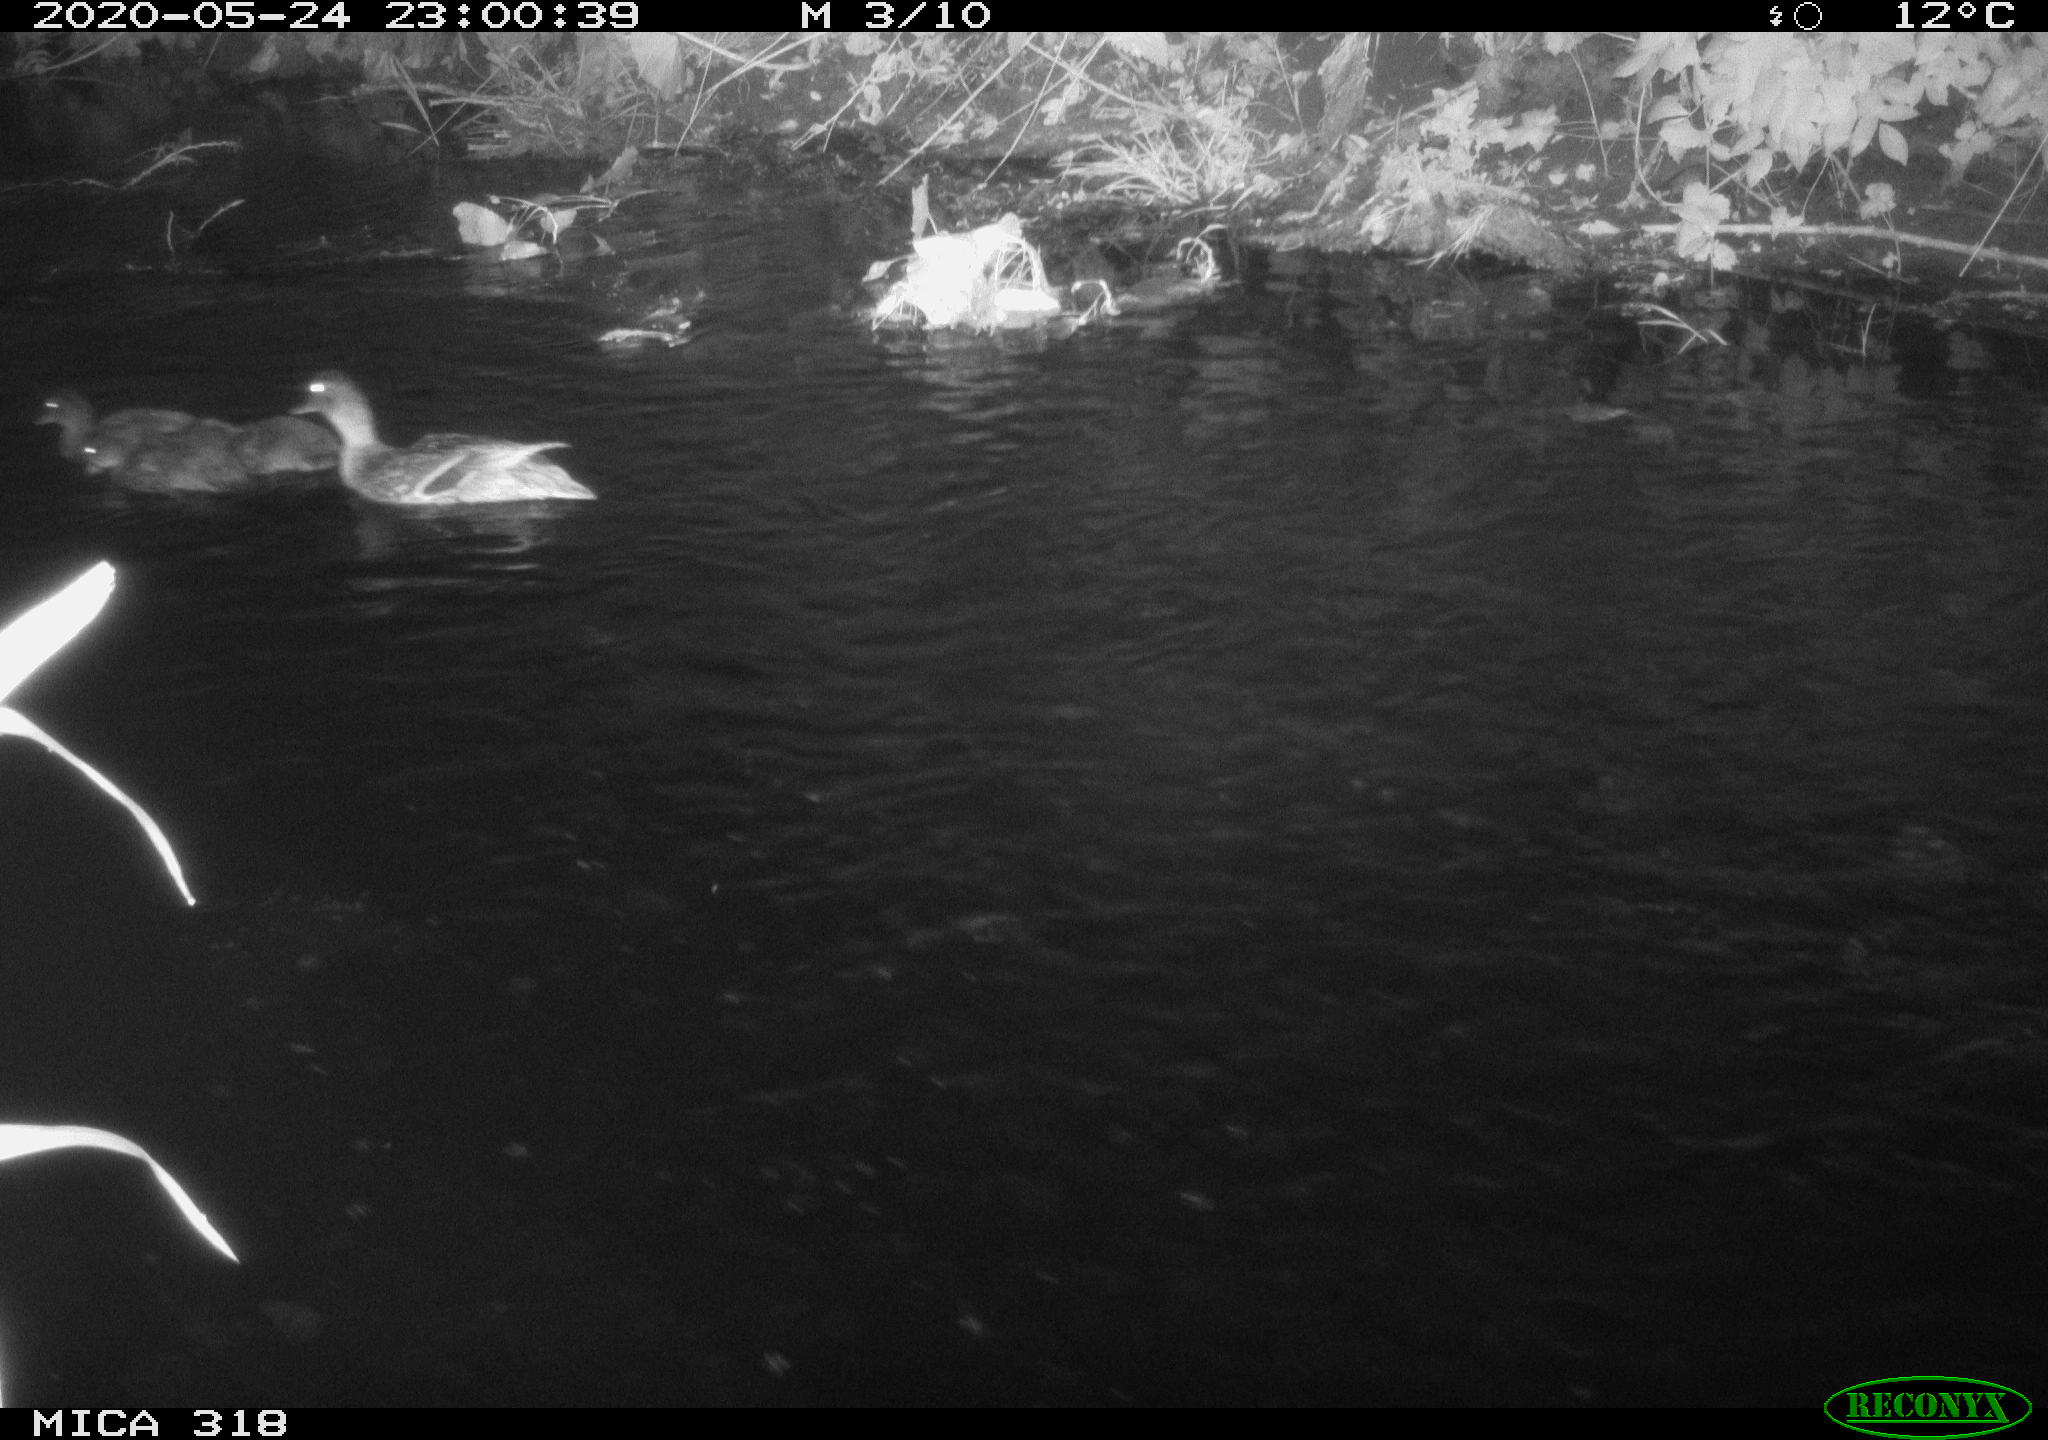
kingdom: Animalia
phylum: Chordata
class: Aves
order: Anseriformes
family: Anatidae
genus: Anas
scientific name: Anas platyrhynchos
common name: Mallard
